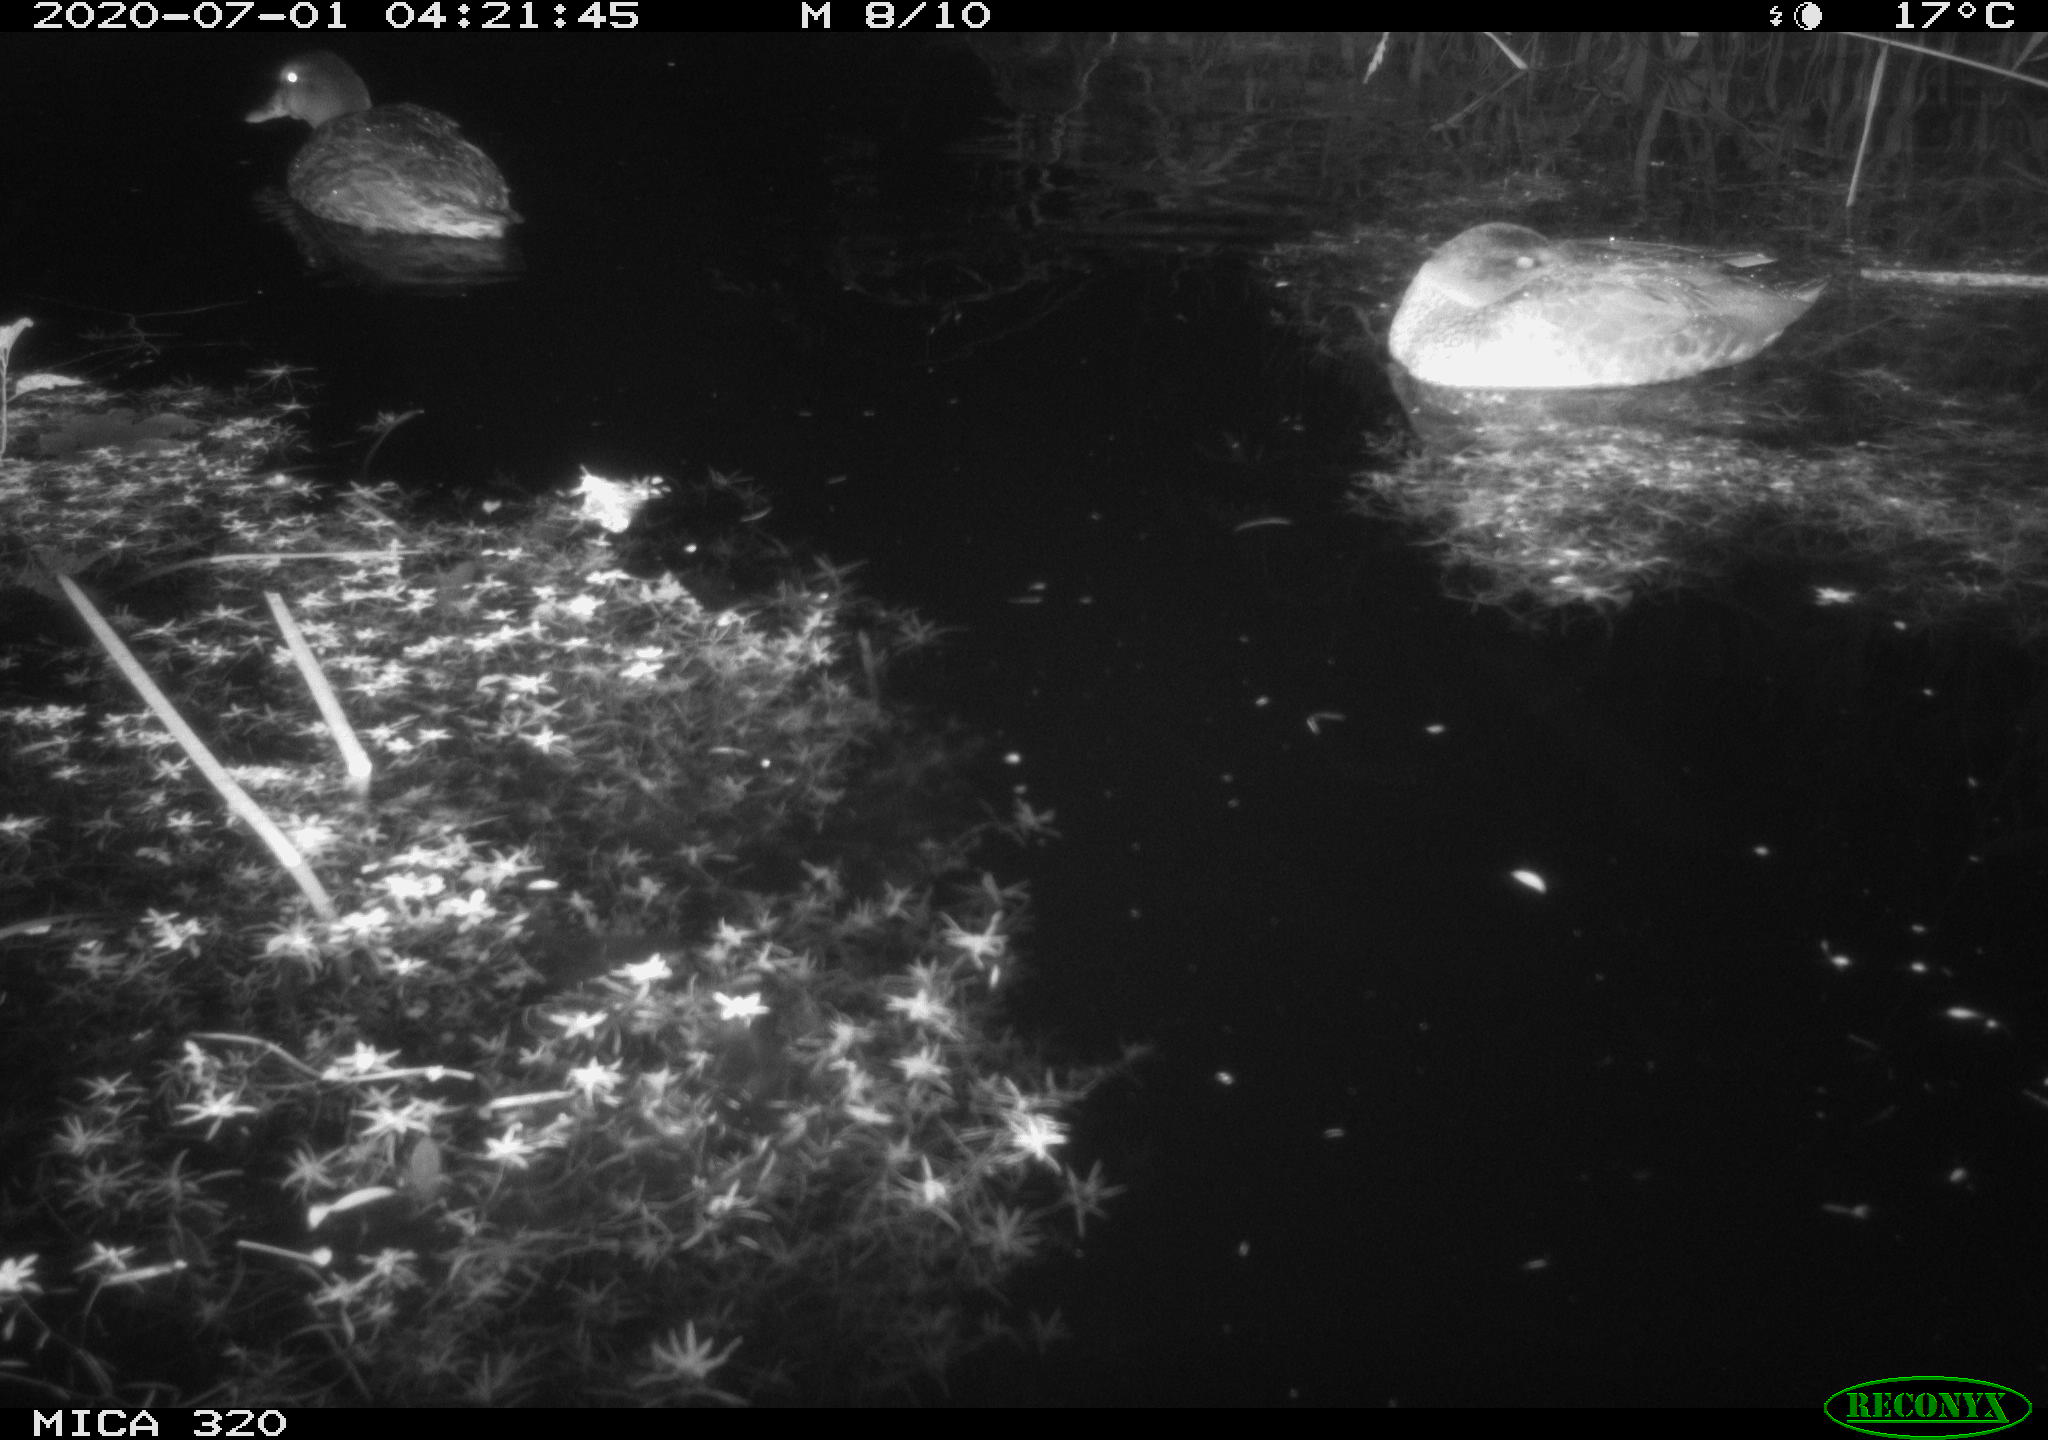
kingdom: Animalia
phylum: Chordata
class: Aves
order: Anseriformes
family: Anatidae
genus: Anas
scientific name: Anas platyrhynchos
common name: Mallard
